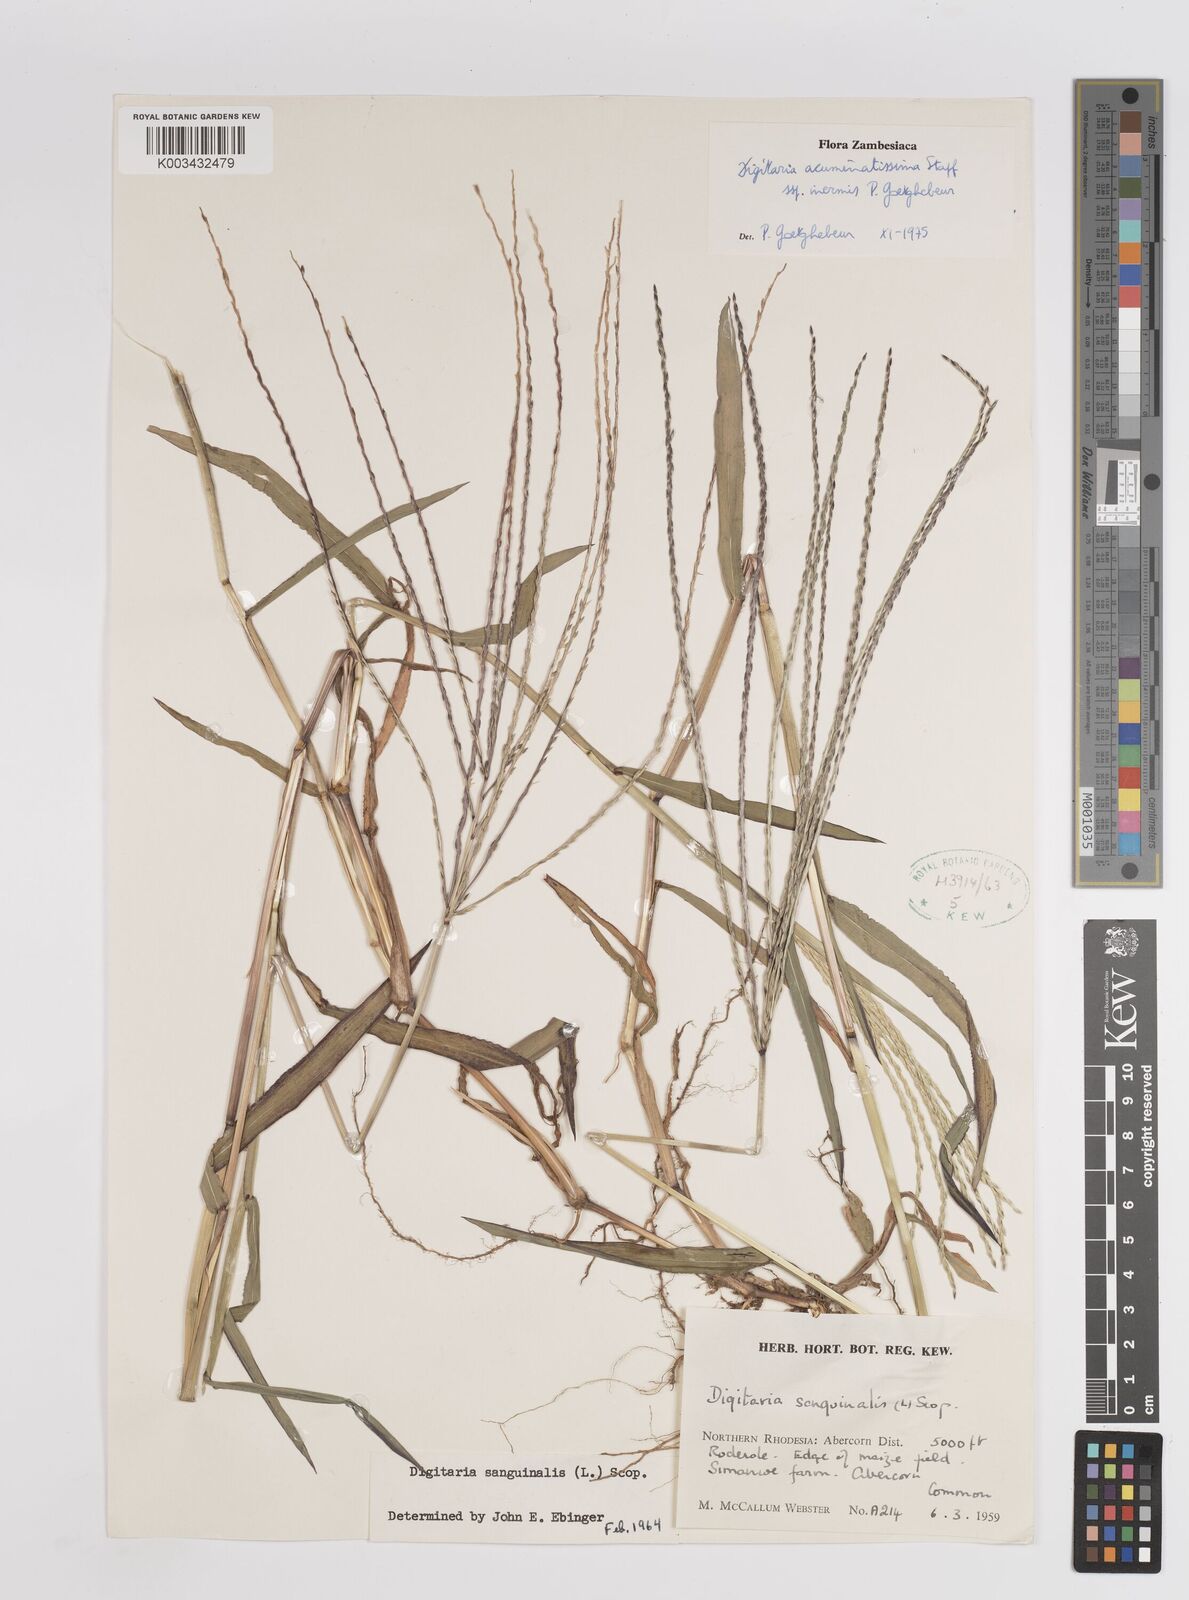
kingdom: Plantae
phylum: Tracheophyta
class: Liliopsida
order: Poales
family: Poaceae
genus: Digitaria
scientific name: Digitaria acuminatissima
